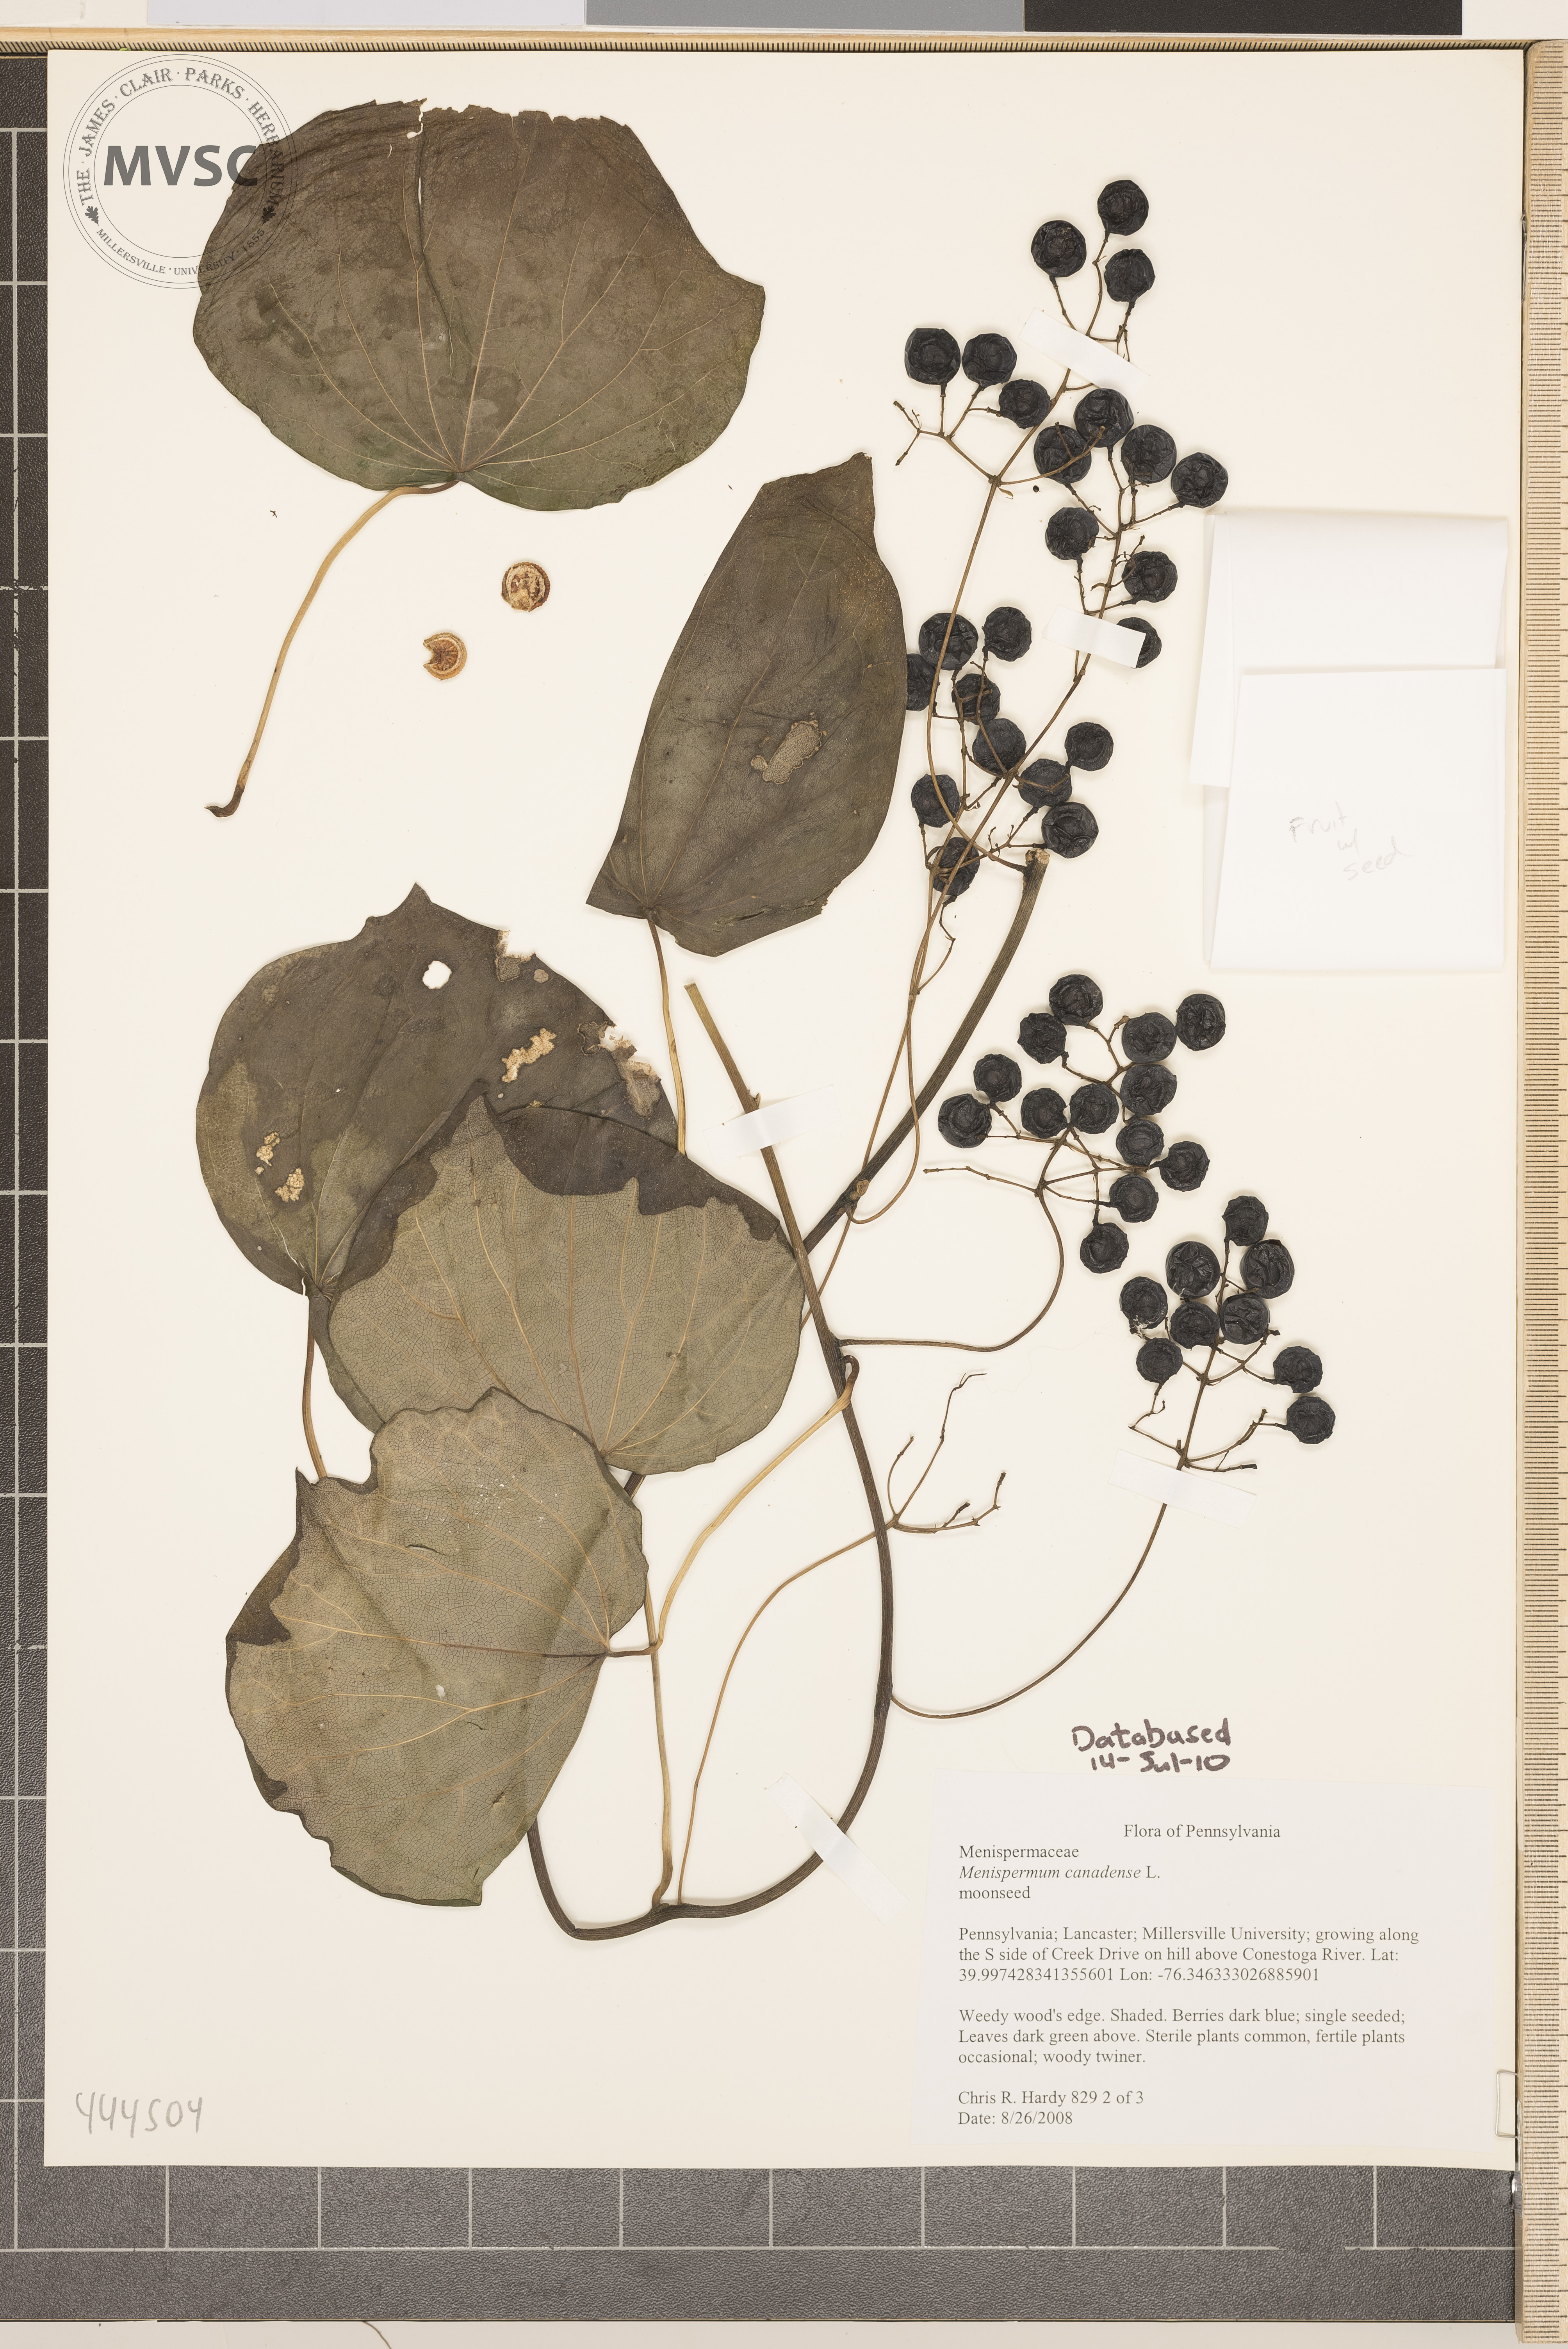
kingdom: Plantae
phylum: Tracheophyta
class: Magnoliopsida
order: Ranunculales
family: Menispermaceae
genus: Menispermum
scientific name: Menispermum canadense
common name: Moonseed
